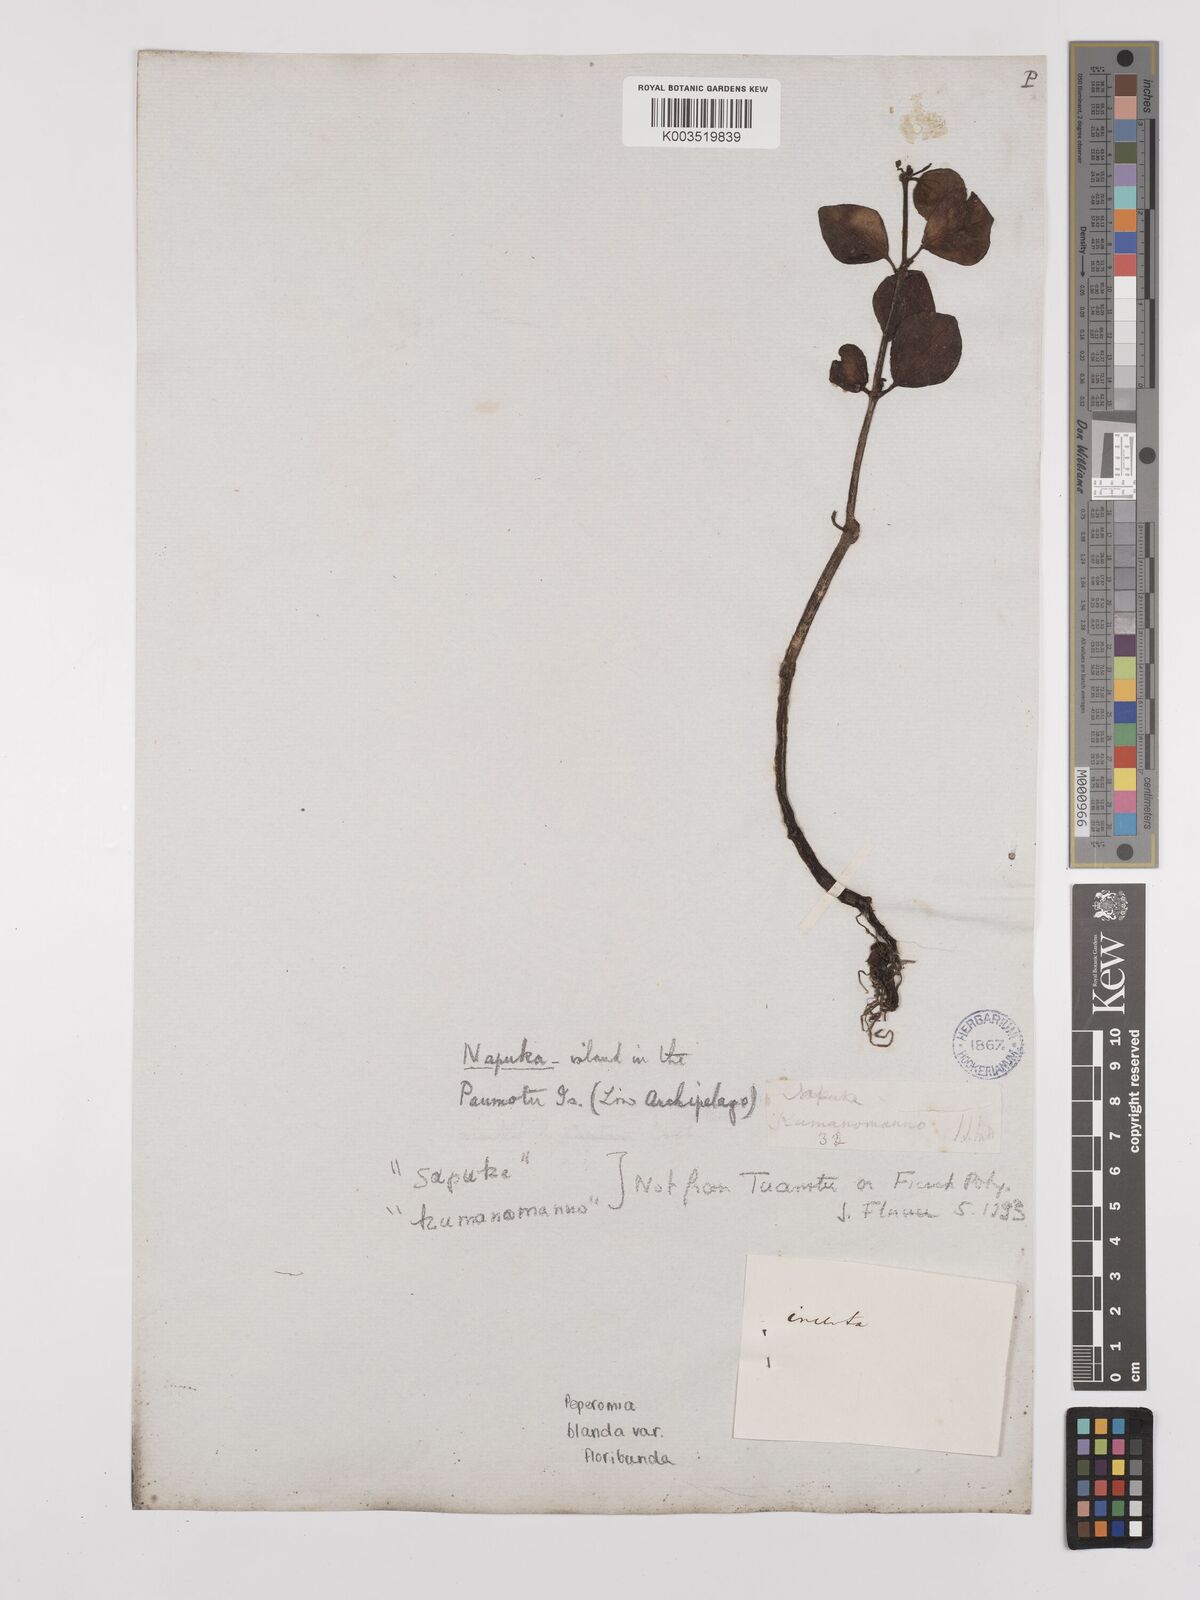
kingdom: Plantae
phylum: Tracheophyta
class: Magnoliopsida
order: Piperales
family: Piperaceae
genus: Peperomia
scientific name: Peperomia leptostachya
